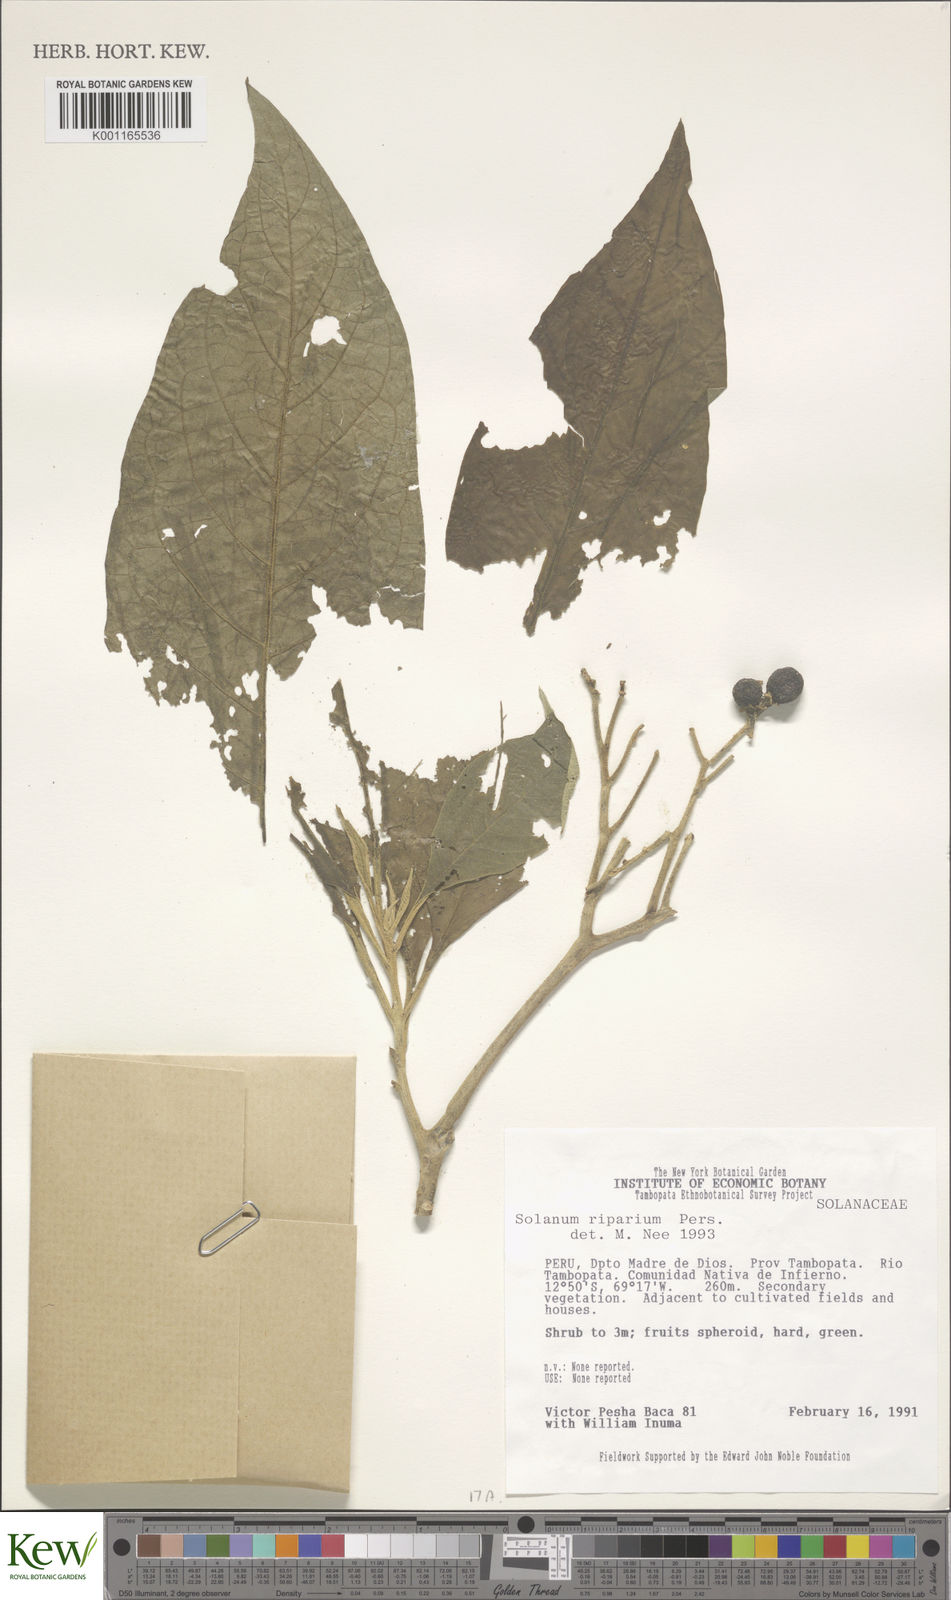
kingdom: Plantae
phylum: Tracheophyta
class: Magnoliopsida
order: Solanales
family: Solanaceae
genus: Solanum
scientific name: Solanum riparium
